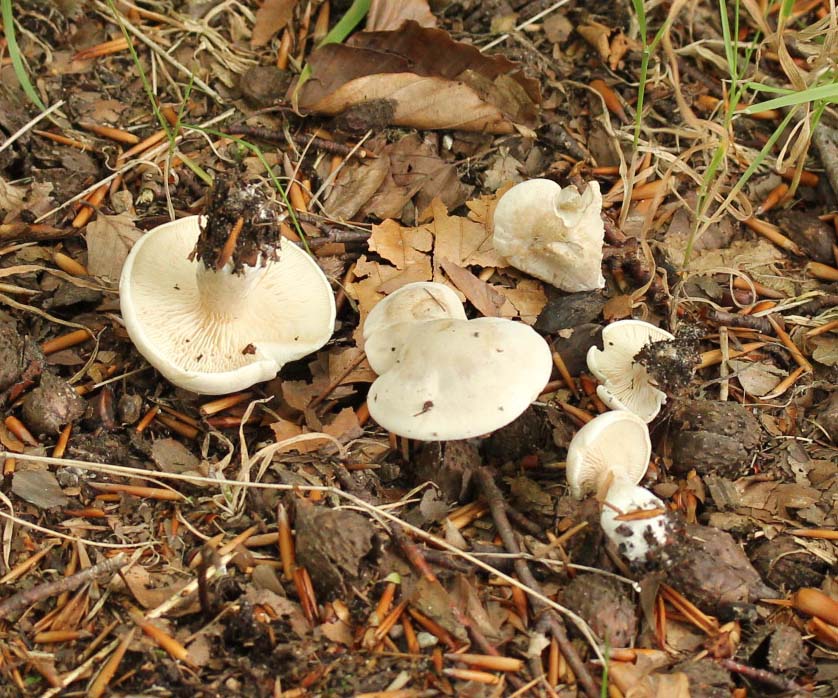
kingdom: Fungi
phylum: Basidiomycota
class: Agaricomycetes
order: Agaricales
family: Entolomataceae
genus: Clitopilus
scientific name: Clitopilus prunulus
